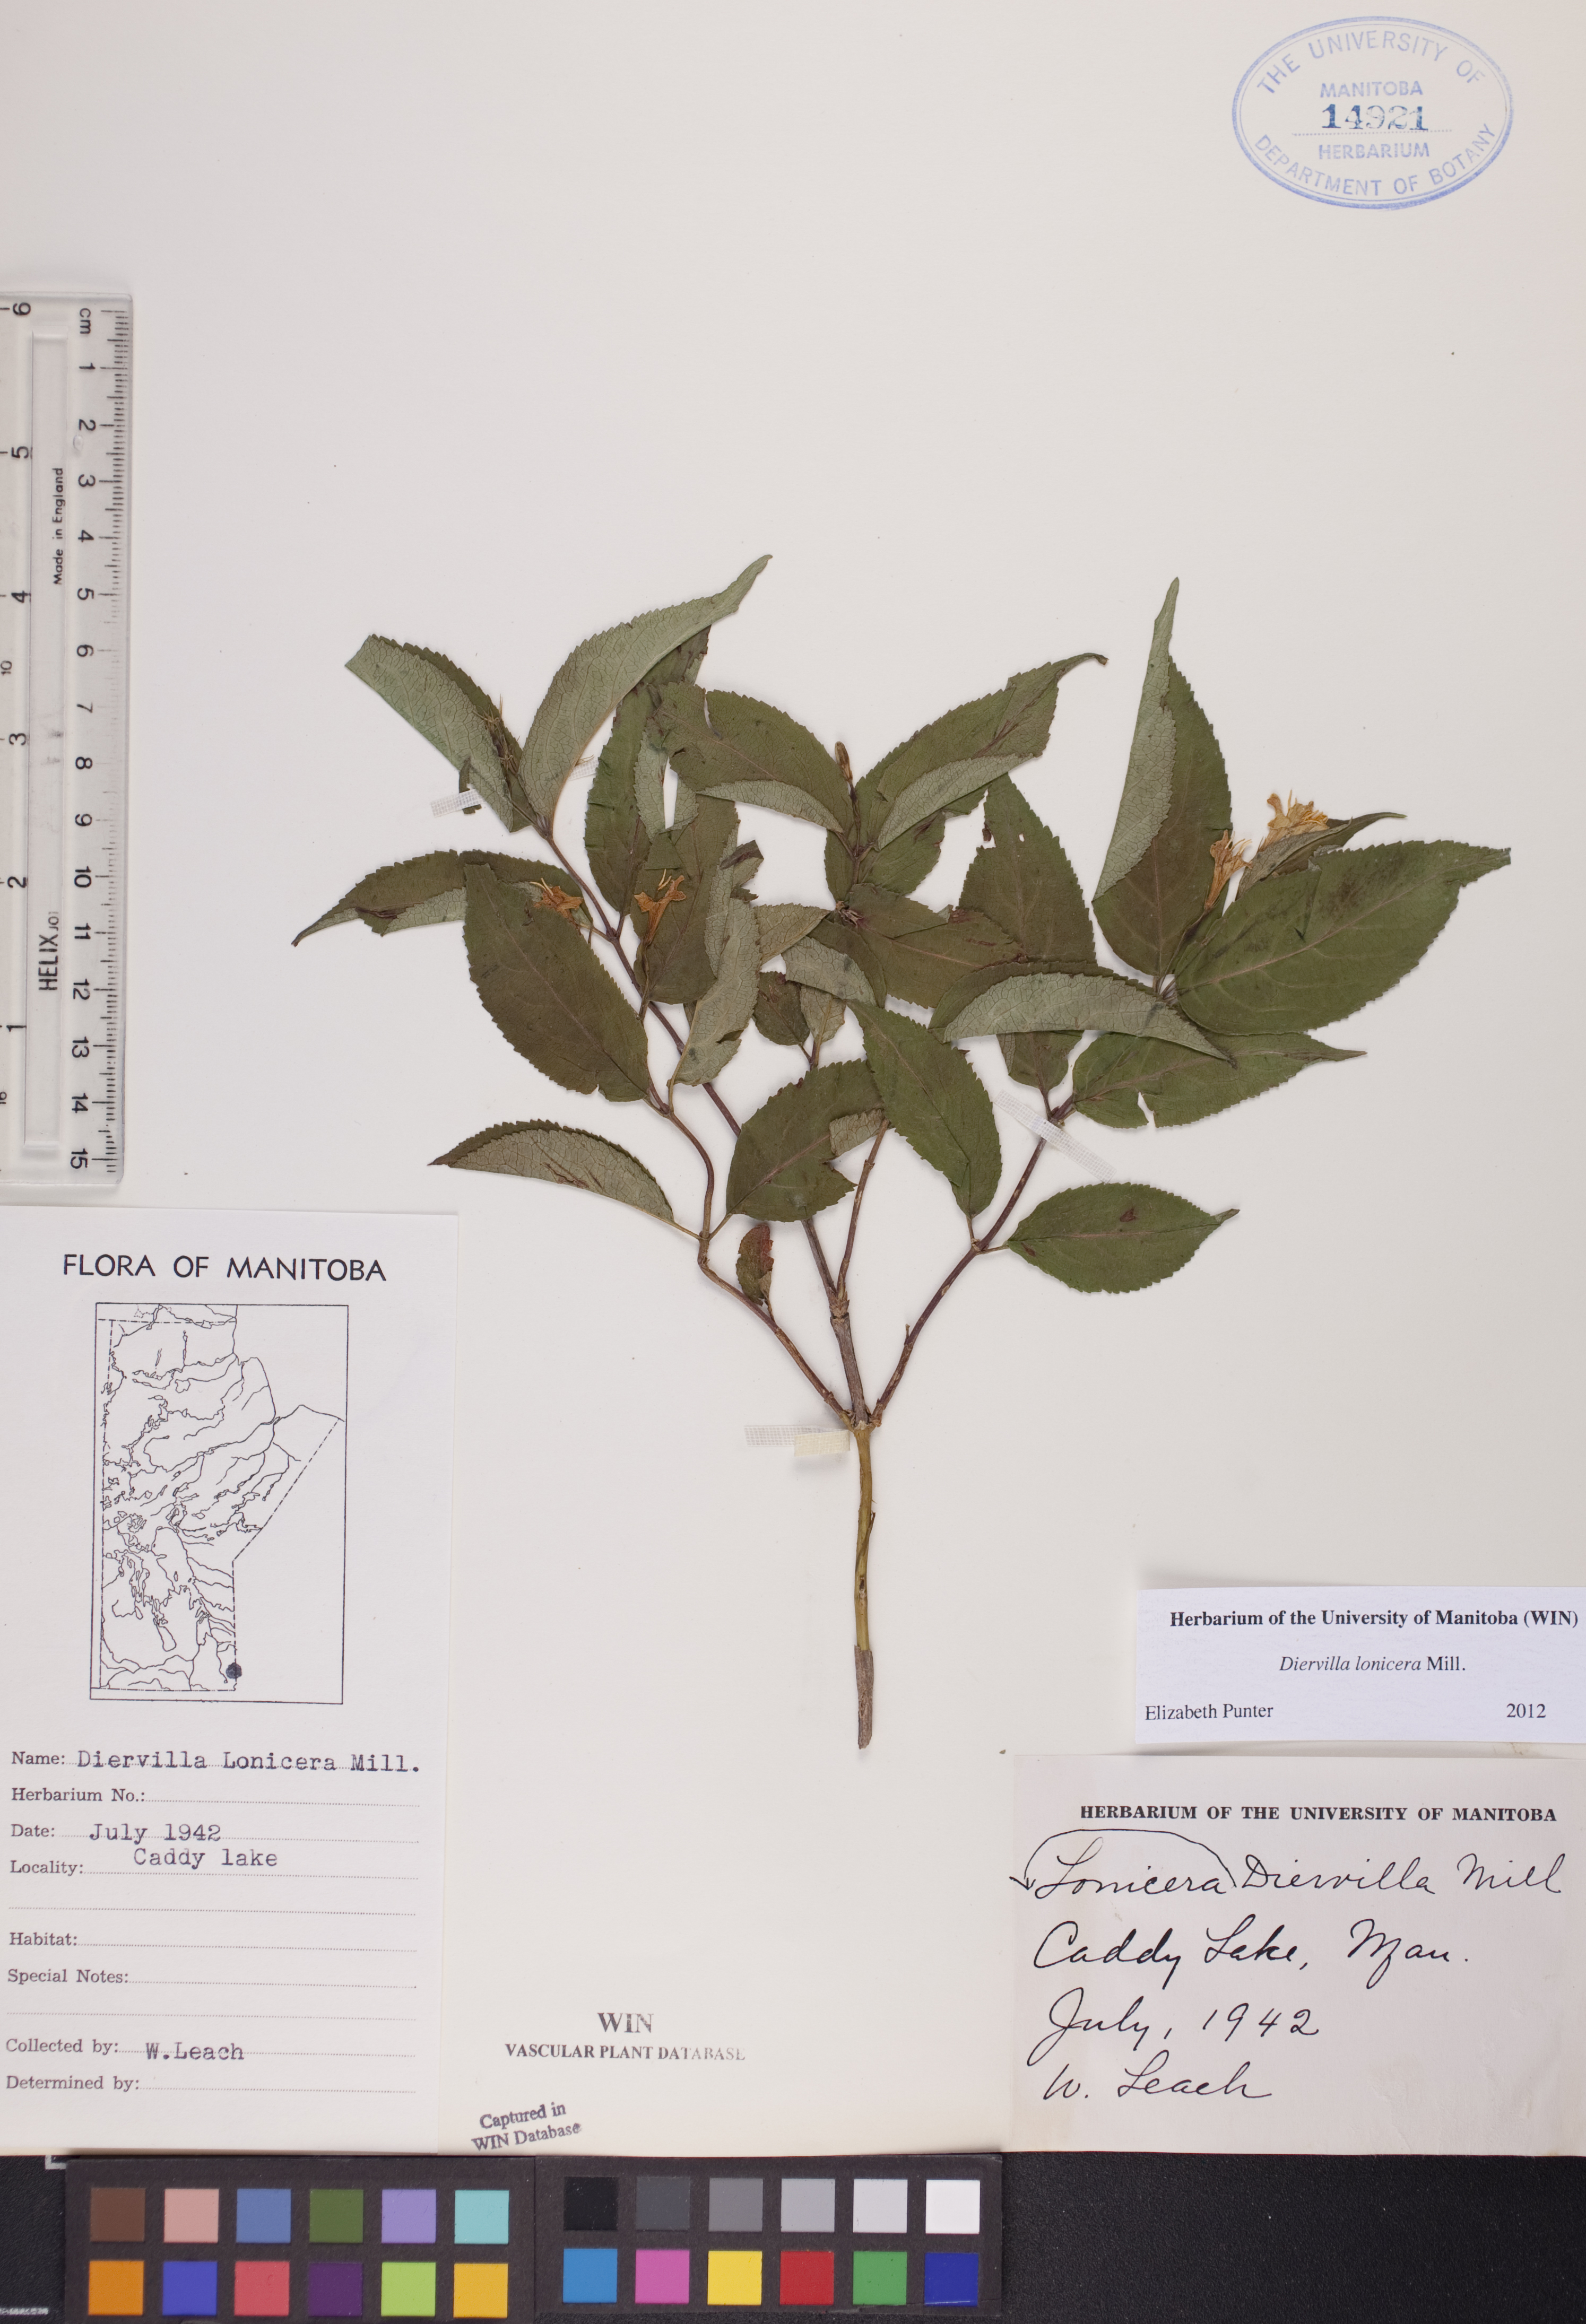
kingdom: Plantae
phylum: Tracheophyta
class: Magnoliopsida
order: Dipsacales
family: Caprifoliaceae
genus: Diervilla
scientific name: Diervilla lonicera
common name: Bush-honeysuckle
